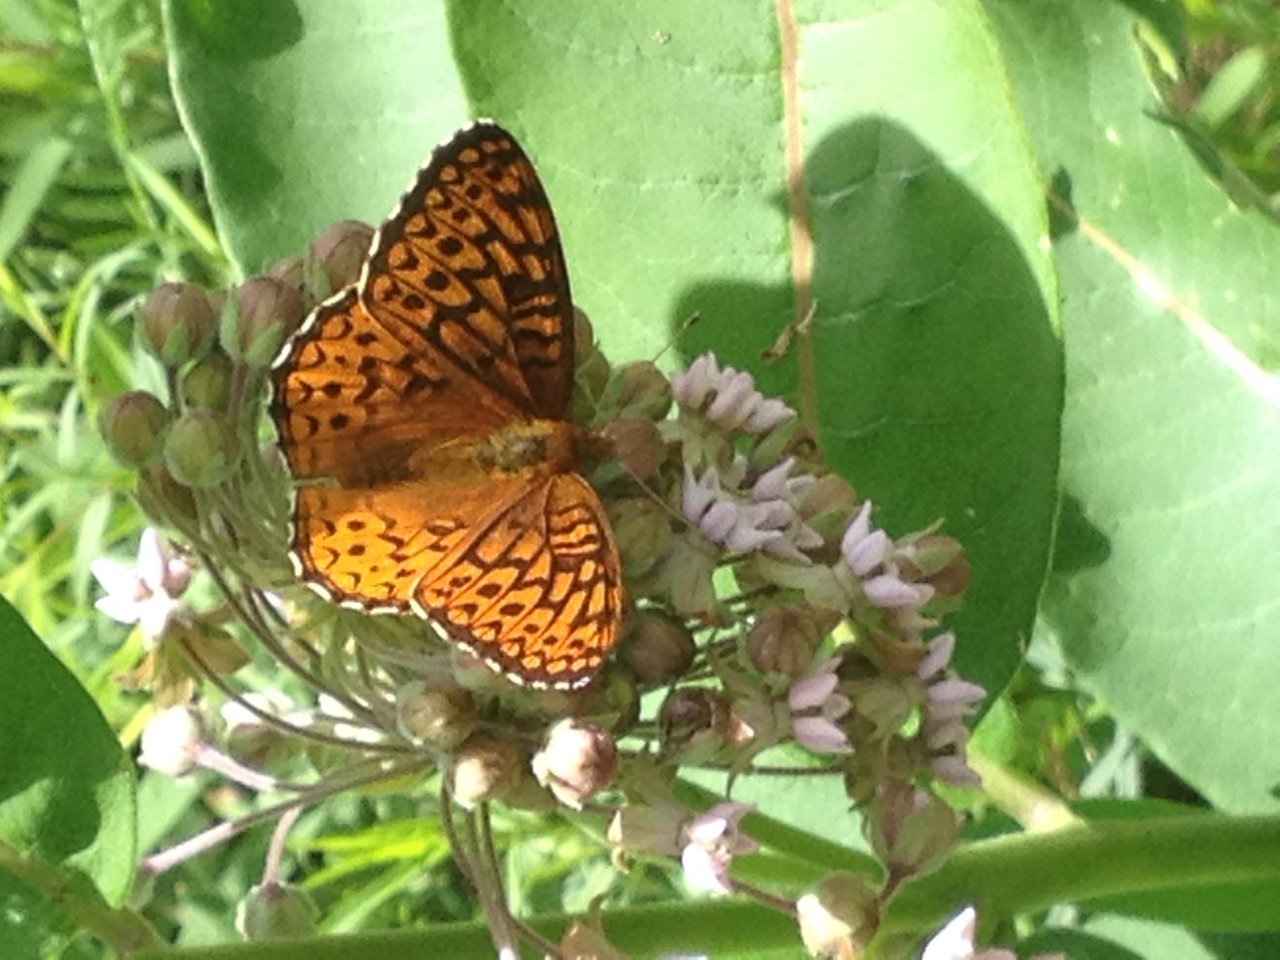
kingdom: Animalia
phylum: Arthropoda
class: Insecta
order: Lepidoptera
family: Nymphalidae
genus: Speyeria
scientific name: Speyeria atlantis
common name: Atlantis Fritillary
